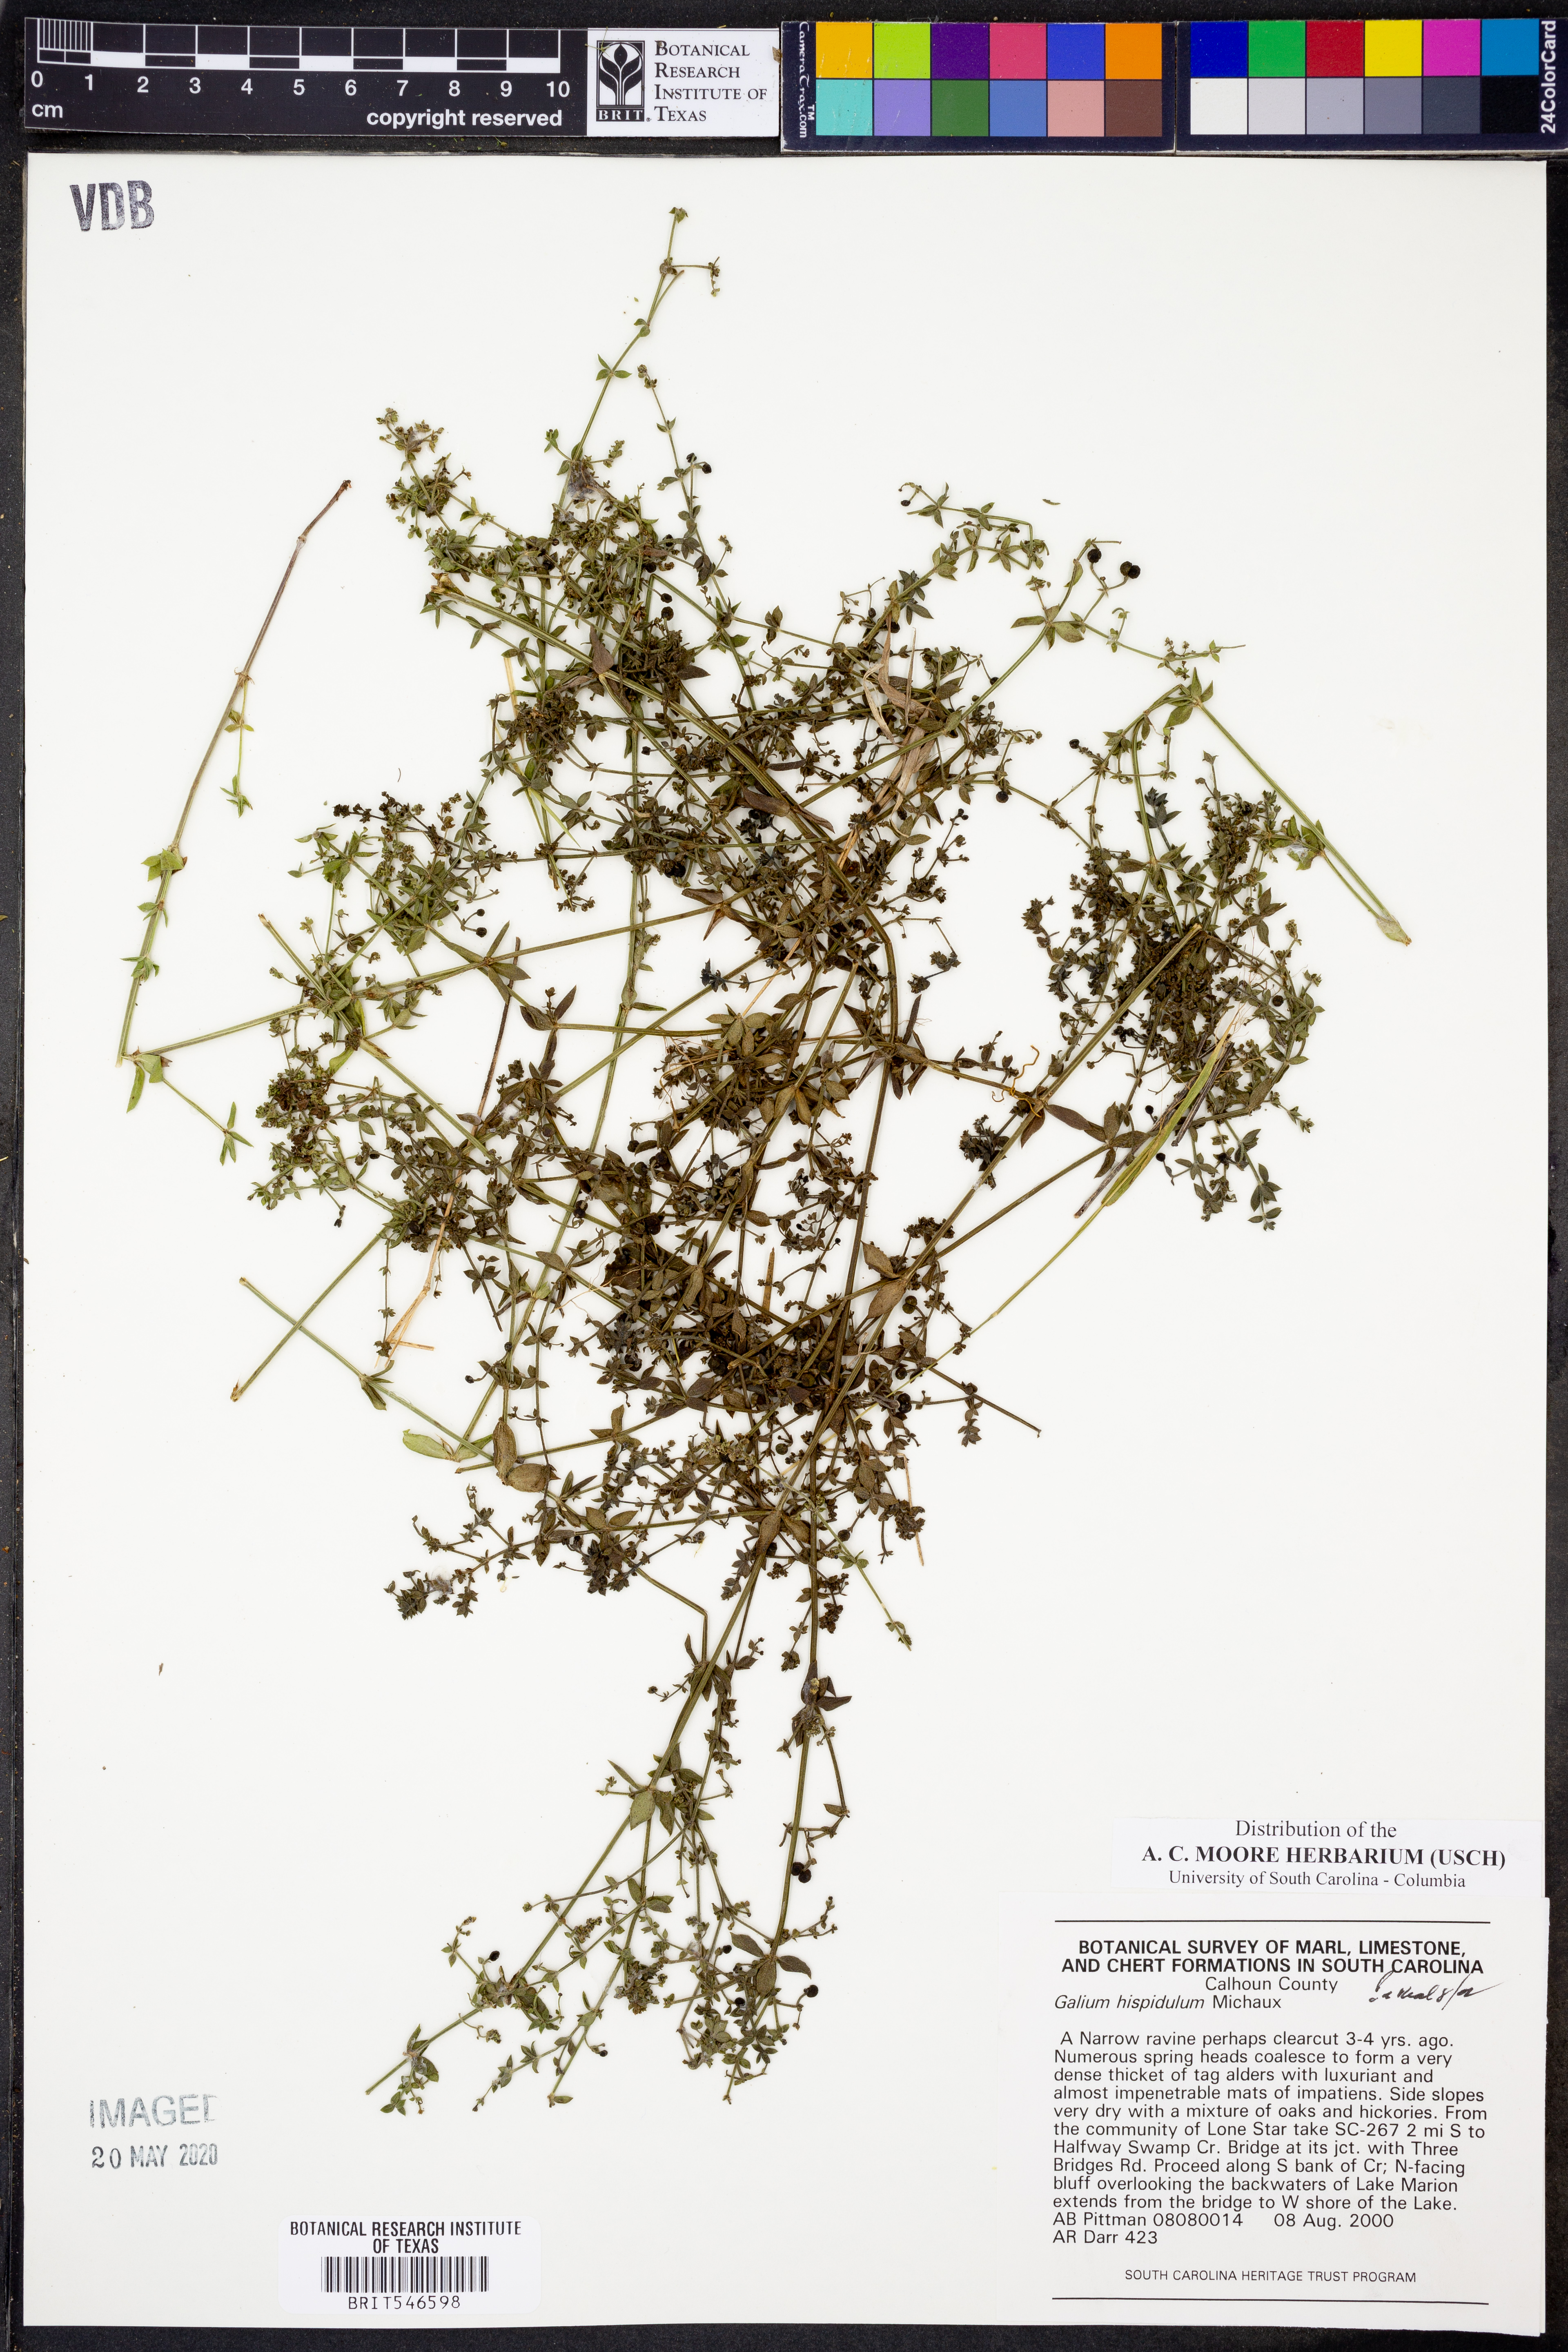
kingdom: Plantae
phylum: Tracheophyta
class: Magnoliopsida
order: Gentianales
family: Rubiaceae
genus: Galium
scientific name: Galium bermudense
